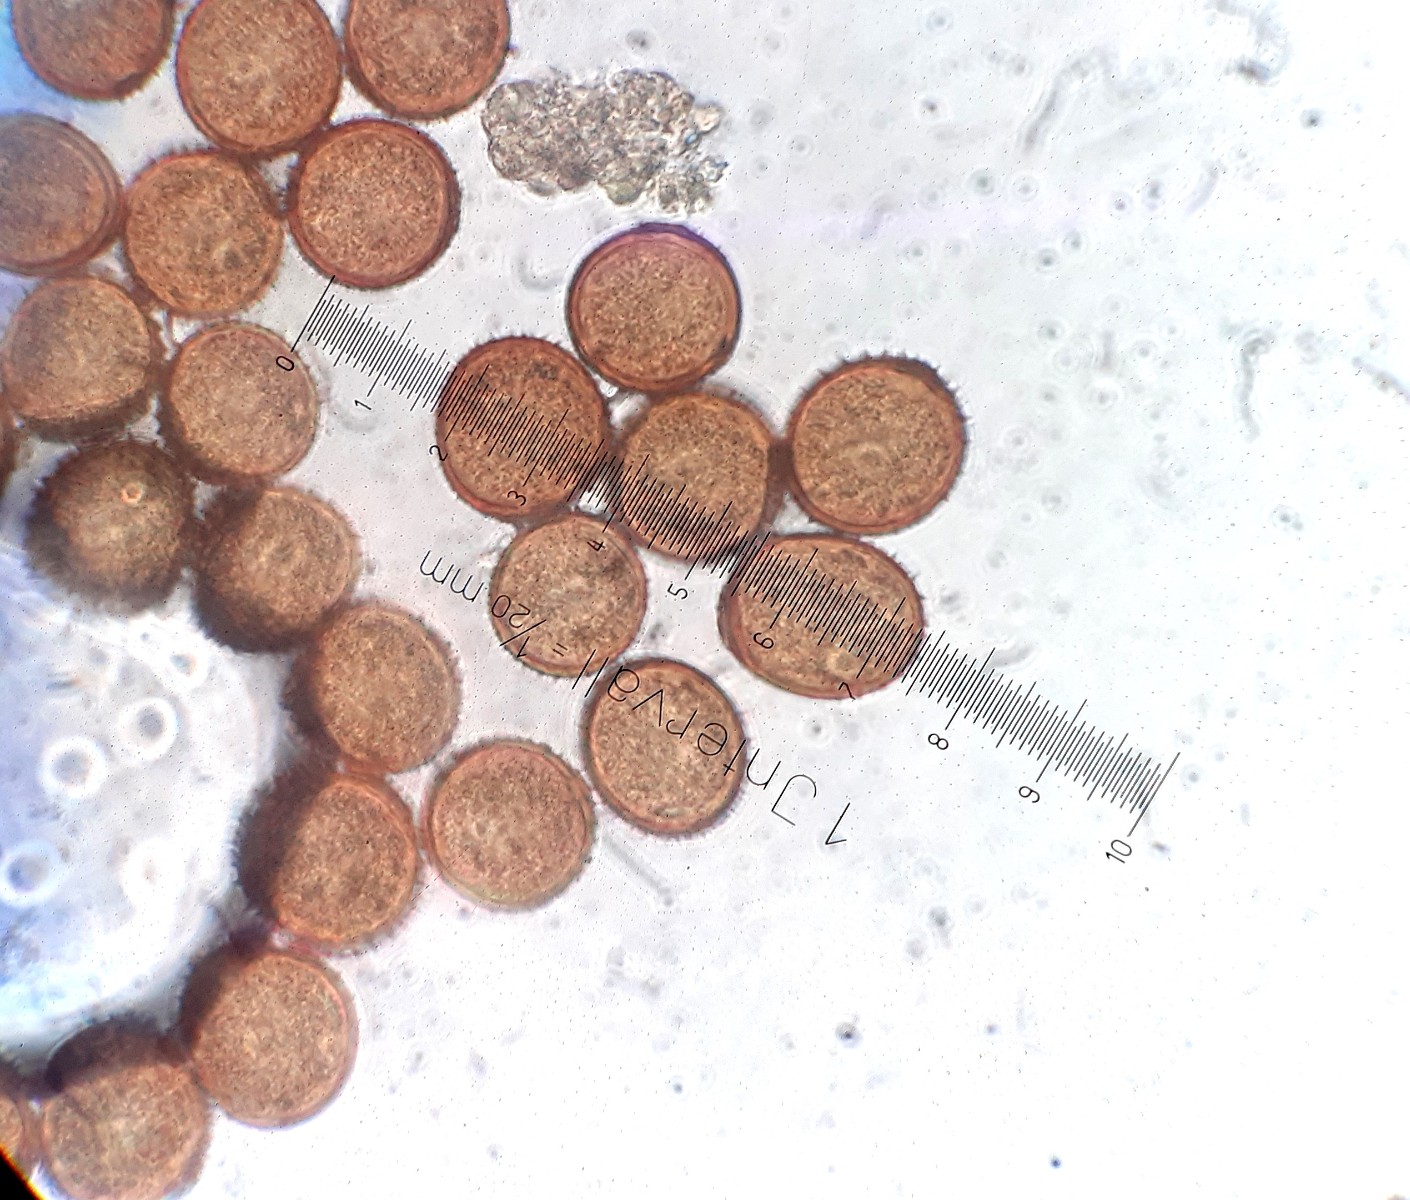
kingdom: Fungi
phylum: Basidiomycota
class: Pucciniomycetes
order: Pucciniales
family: Pucciniaceae
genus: Puccinia
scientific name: Puccinia acetosae
